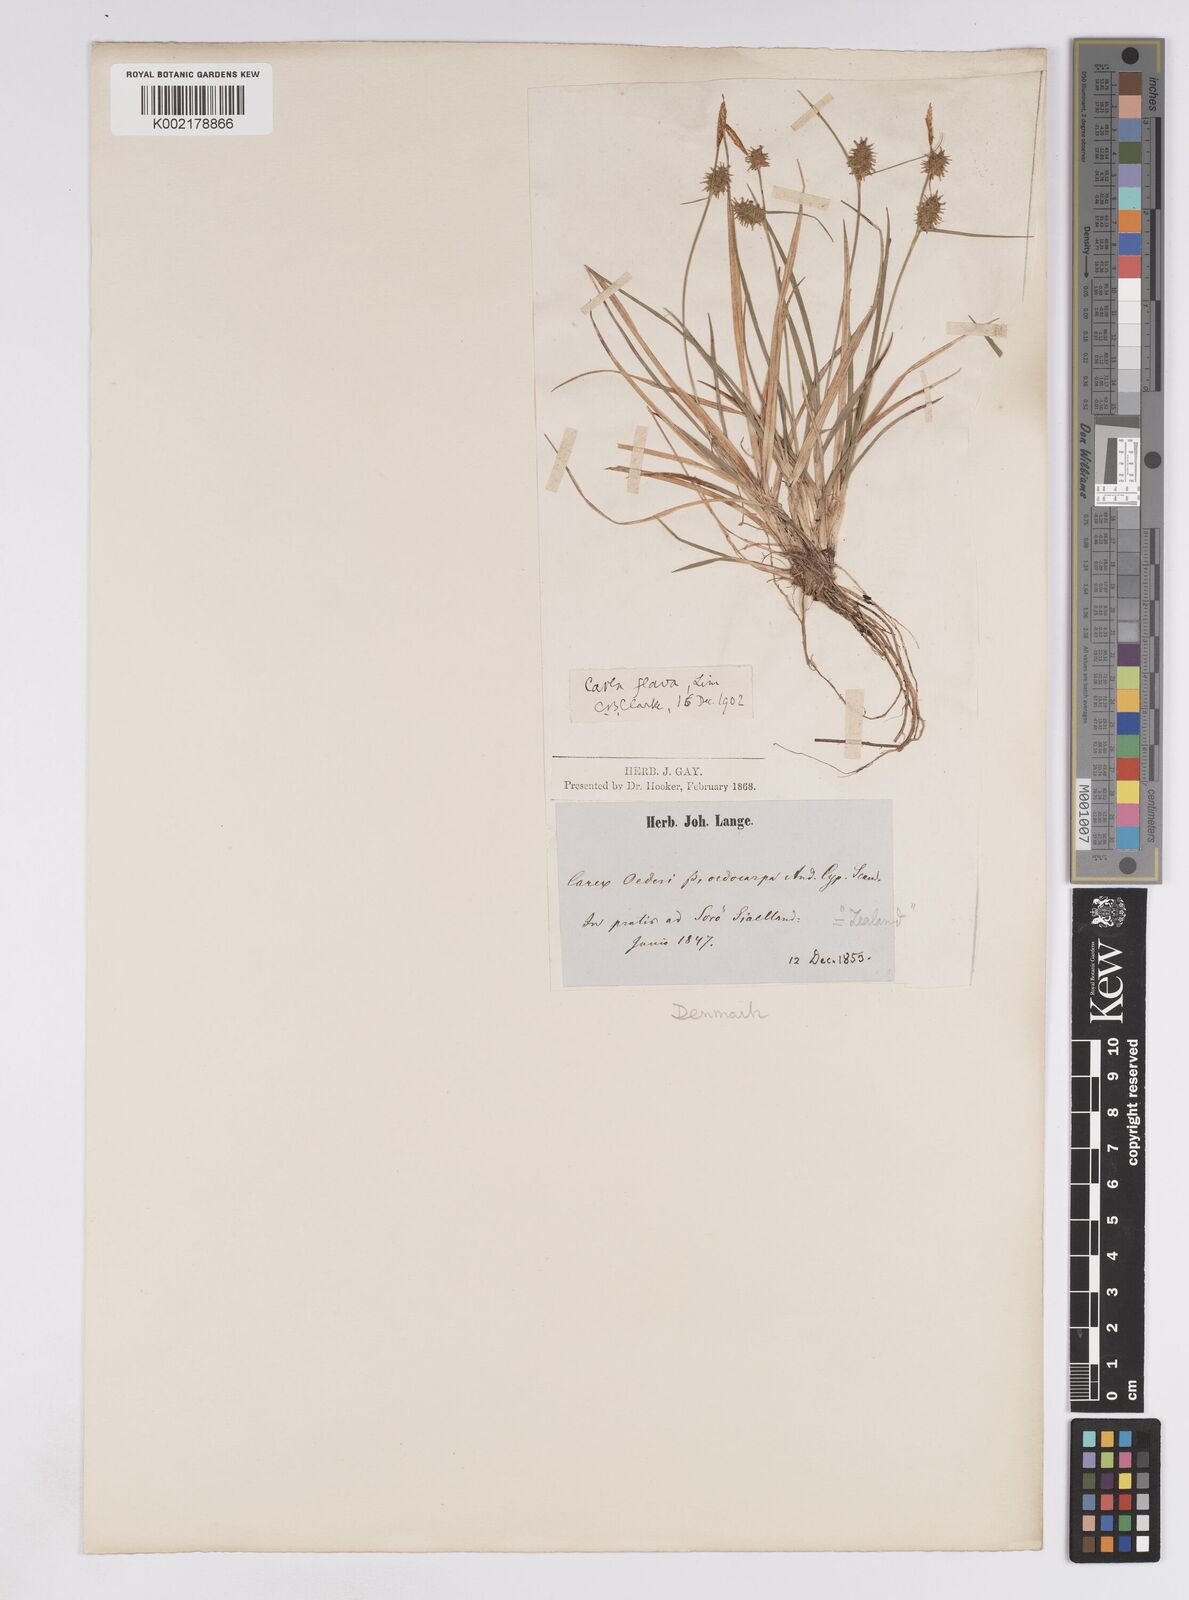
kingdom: Plantae
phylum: Tracheophyta
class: Liliopsida
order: Poales
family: Cyperaceae
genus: Carex
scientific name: Carex lepidocarpa
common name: Long-stalked yellow-sedge
